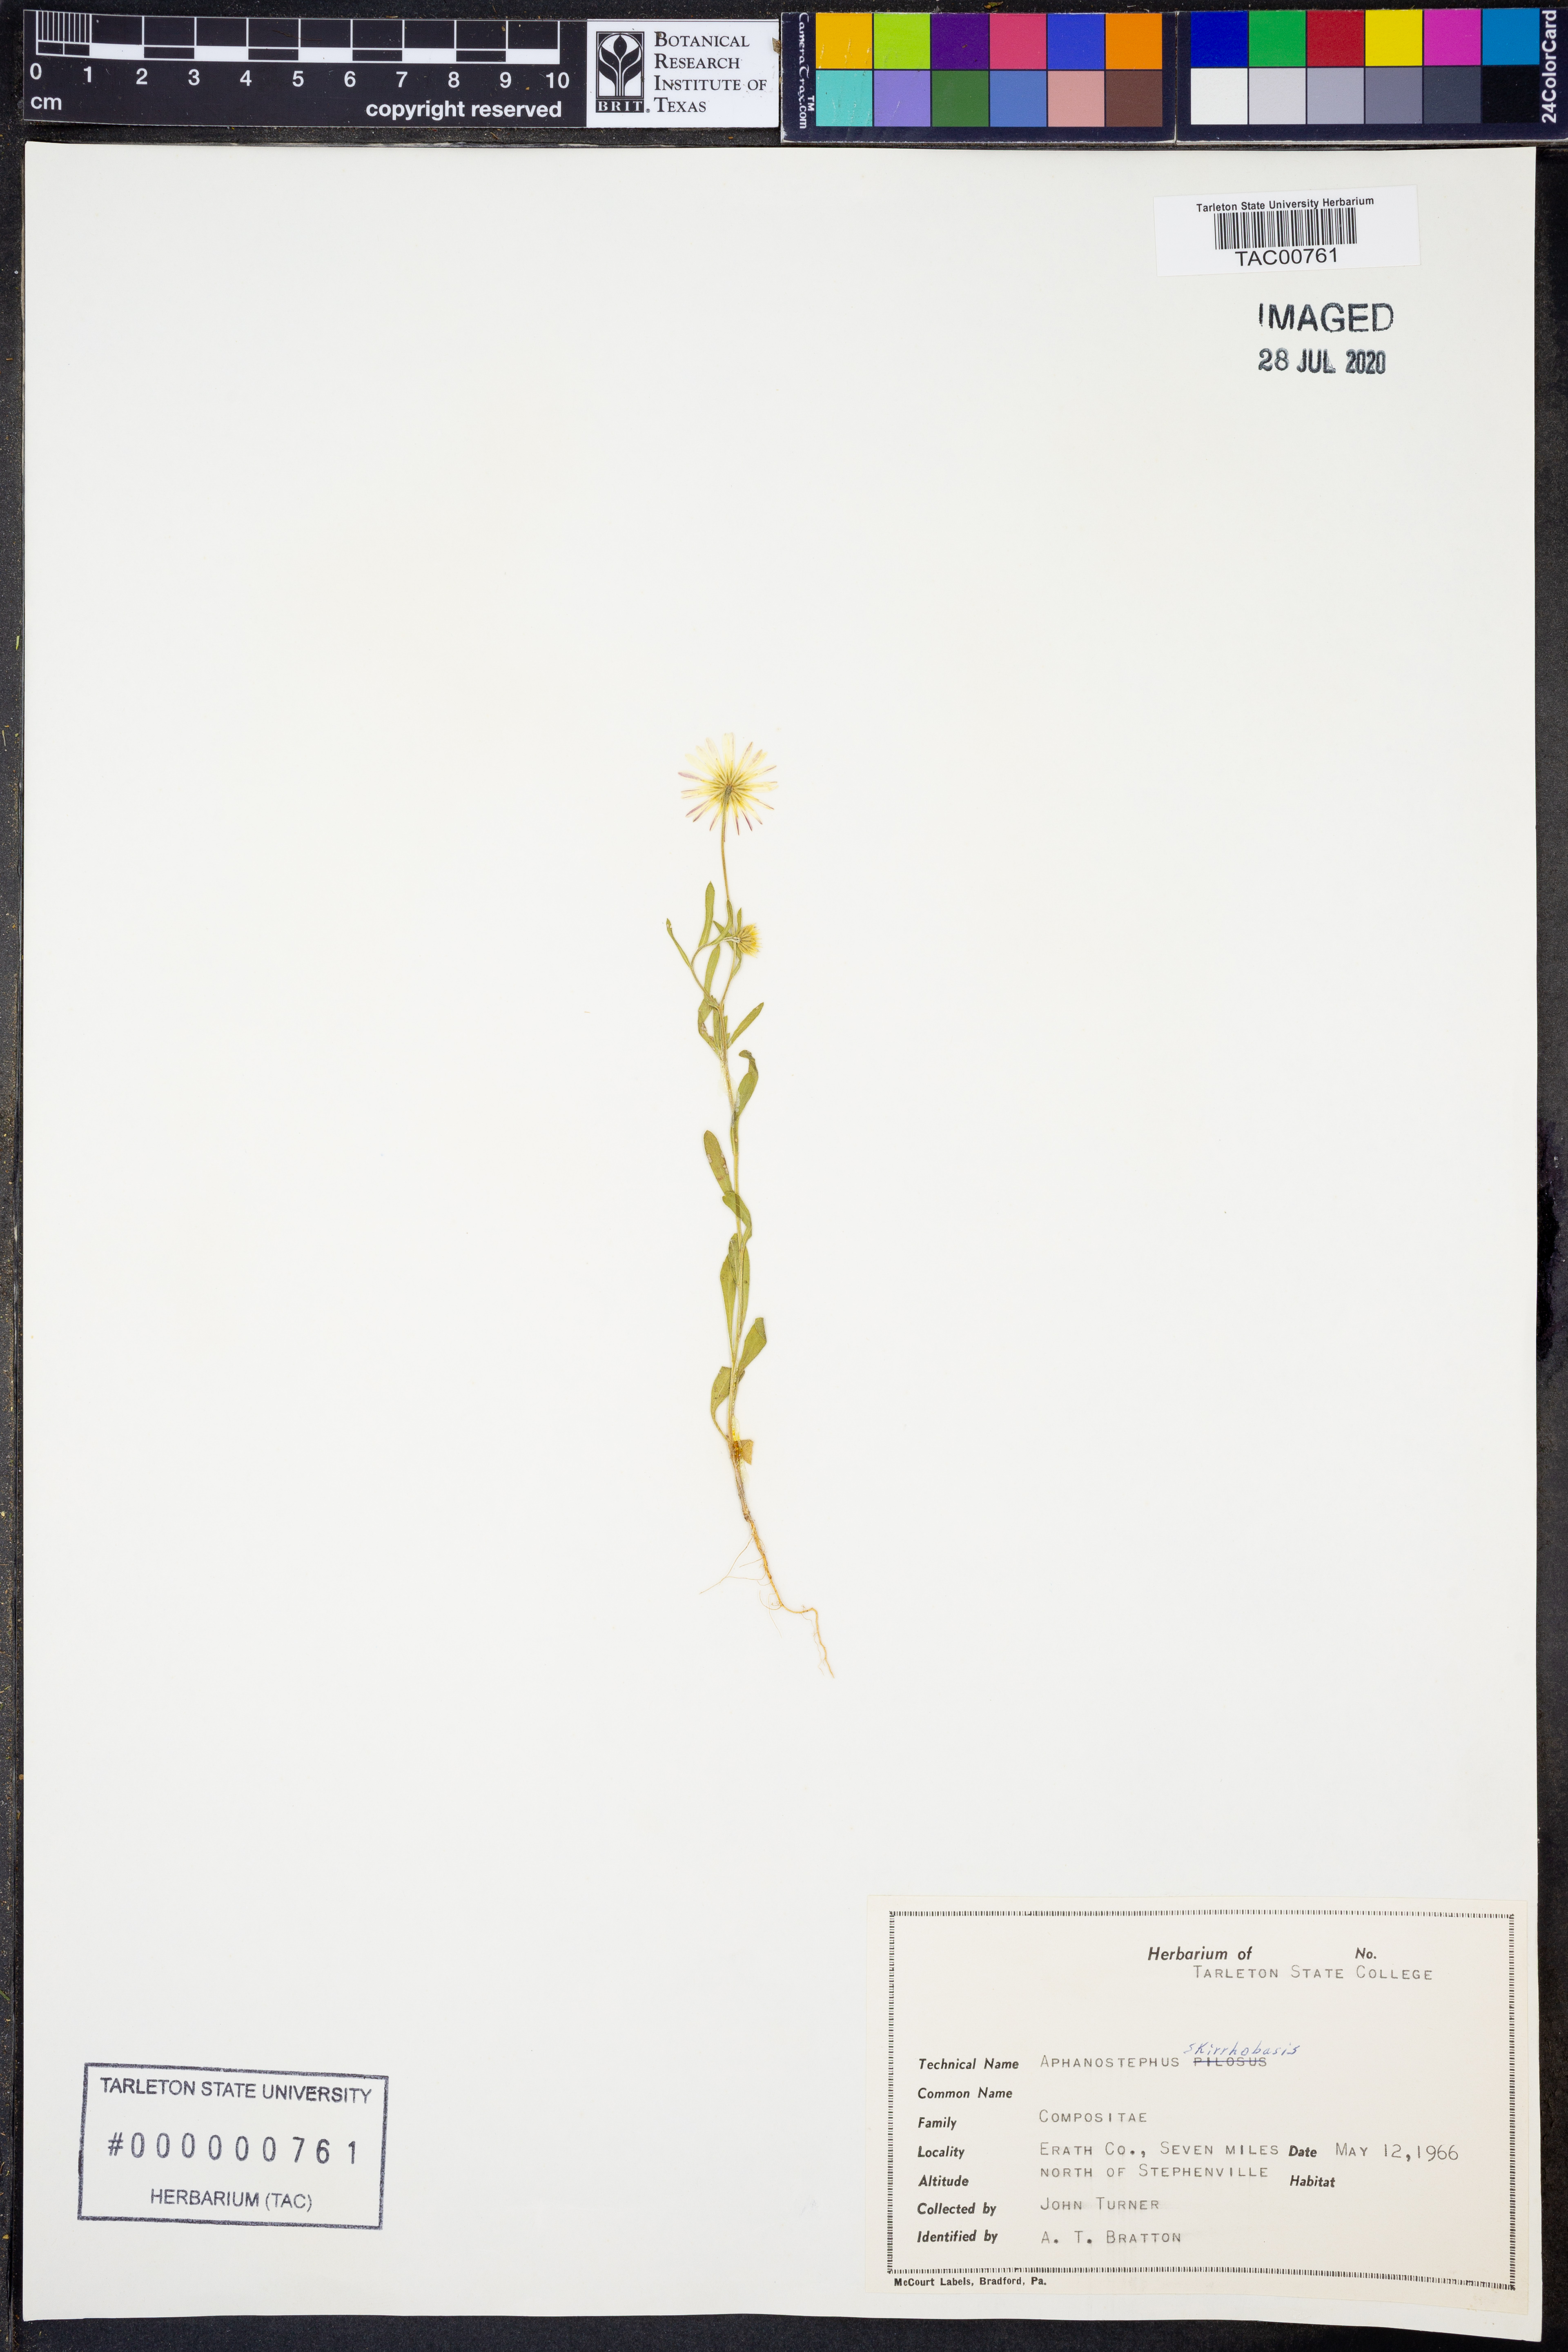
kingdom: Plantae
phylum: Tracheophyta
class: Magnoliopsida
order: Asterales
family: Asteraceae
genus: Aphanostephus
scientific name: Aphanostephus skirrhobasis
